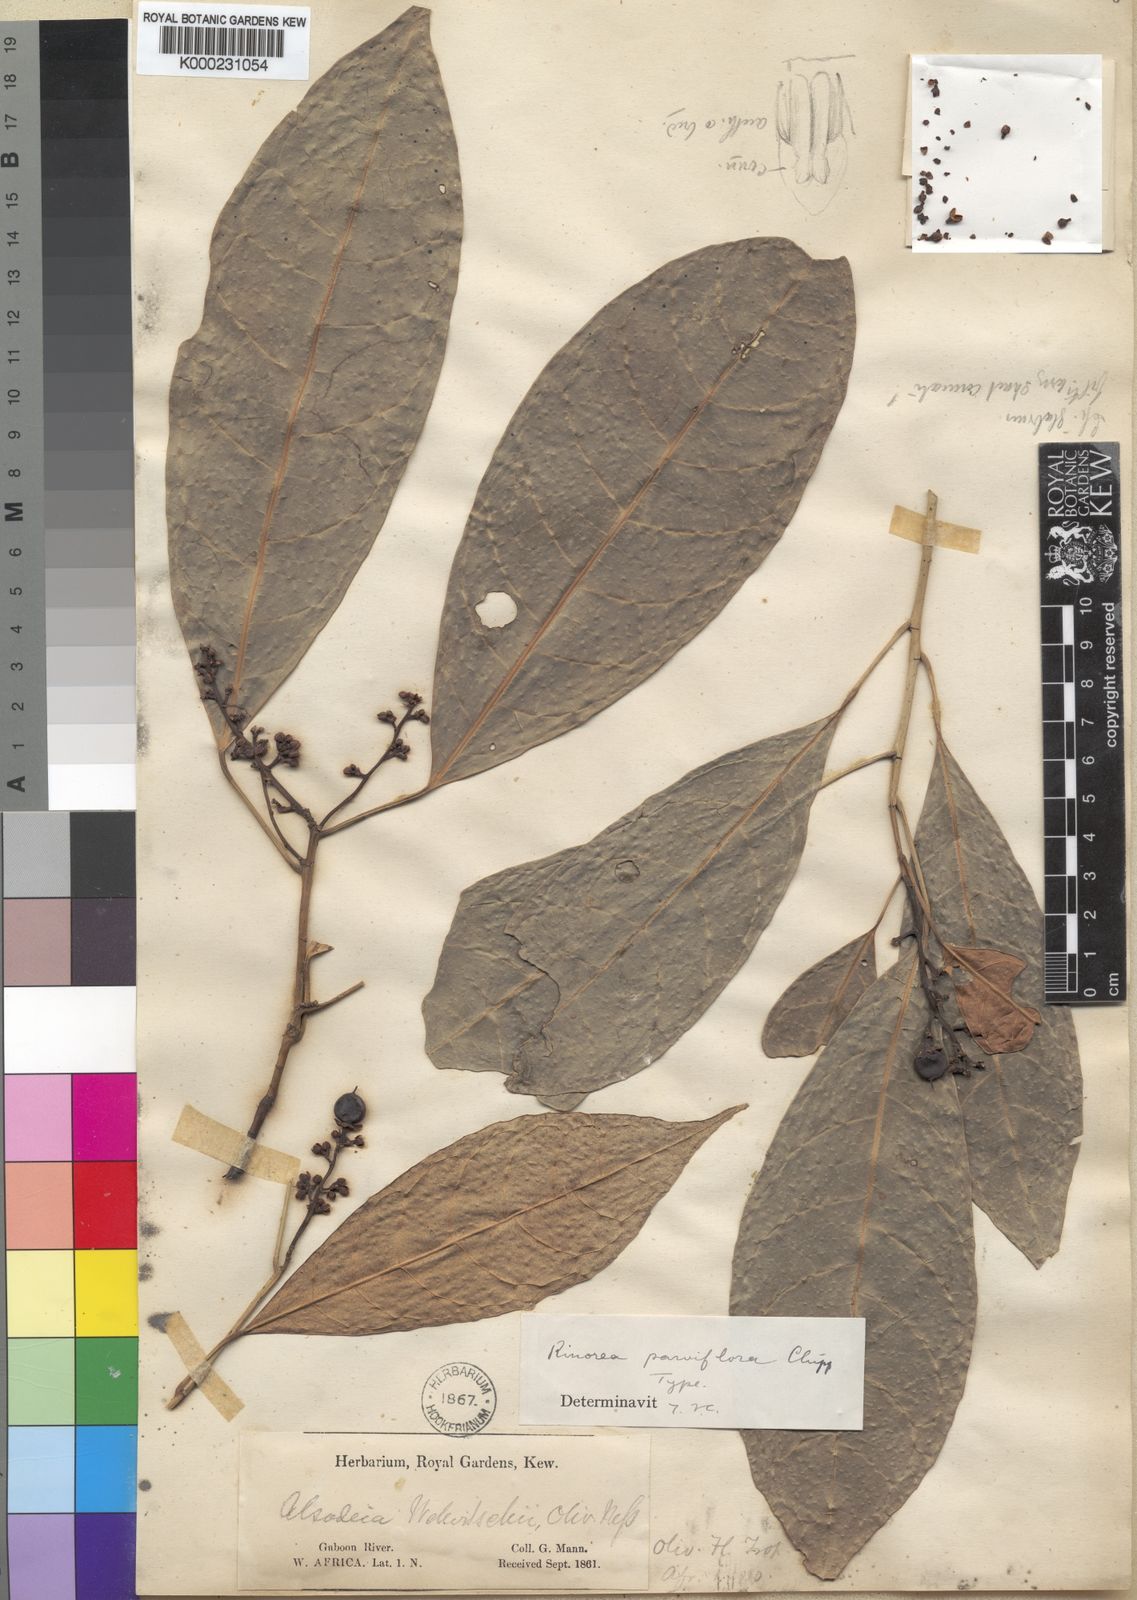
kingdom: Plantae
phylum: Tracheophyta
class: Magnoliopsida
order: Malpighiales
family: Violaceae
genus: Rinorea
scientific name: Rinorea parviflora
